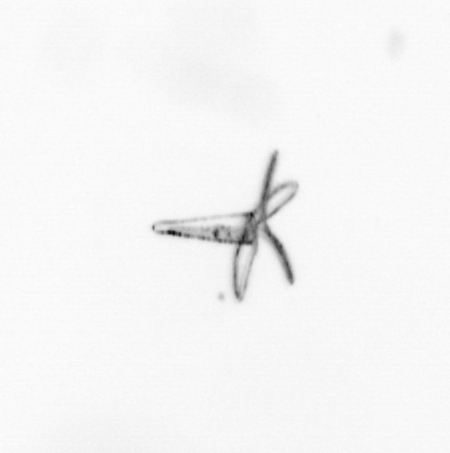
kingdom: Animalia
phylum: Mollusca
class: Gastropoda
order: Pteropoda
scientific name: Pteropoda
